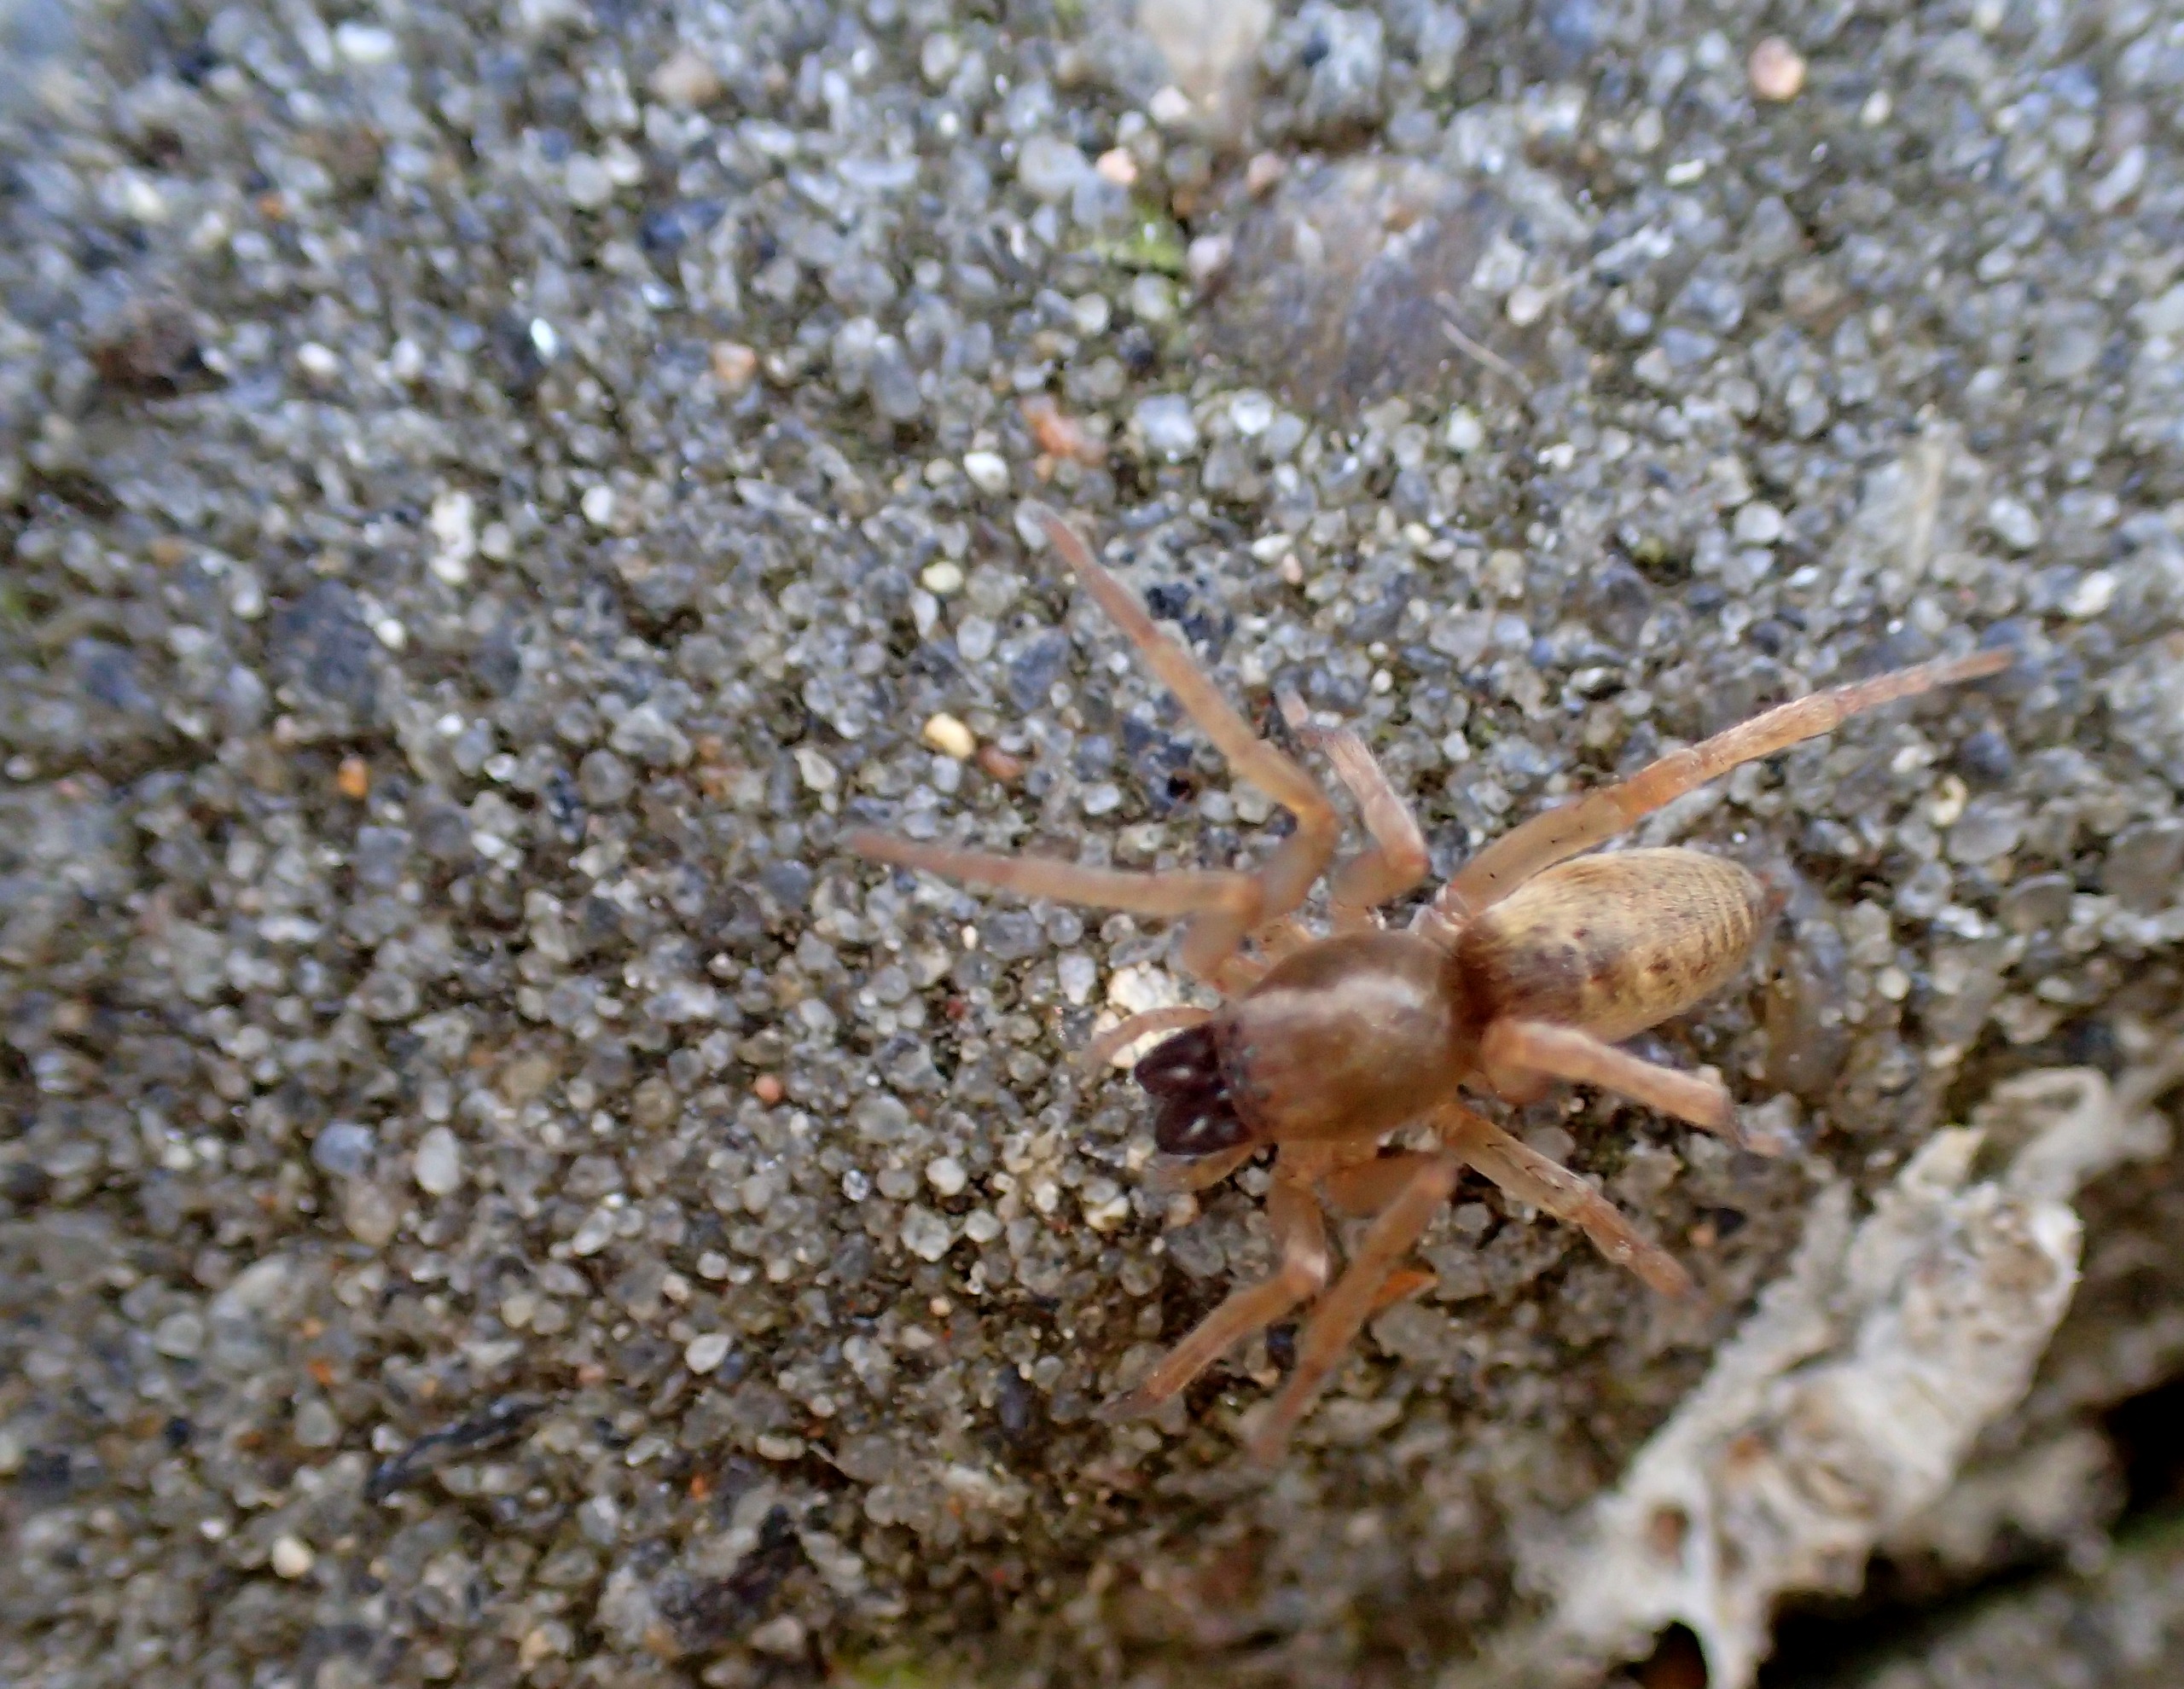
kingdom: Animalia
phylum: Arthropoda
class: Arachnida
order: Araneae
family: Clubionidae
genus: Clubiona
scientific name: Clubiona
